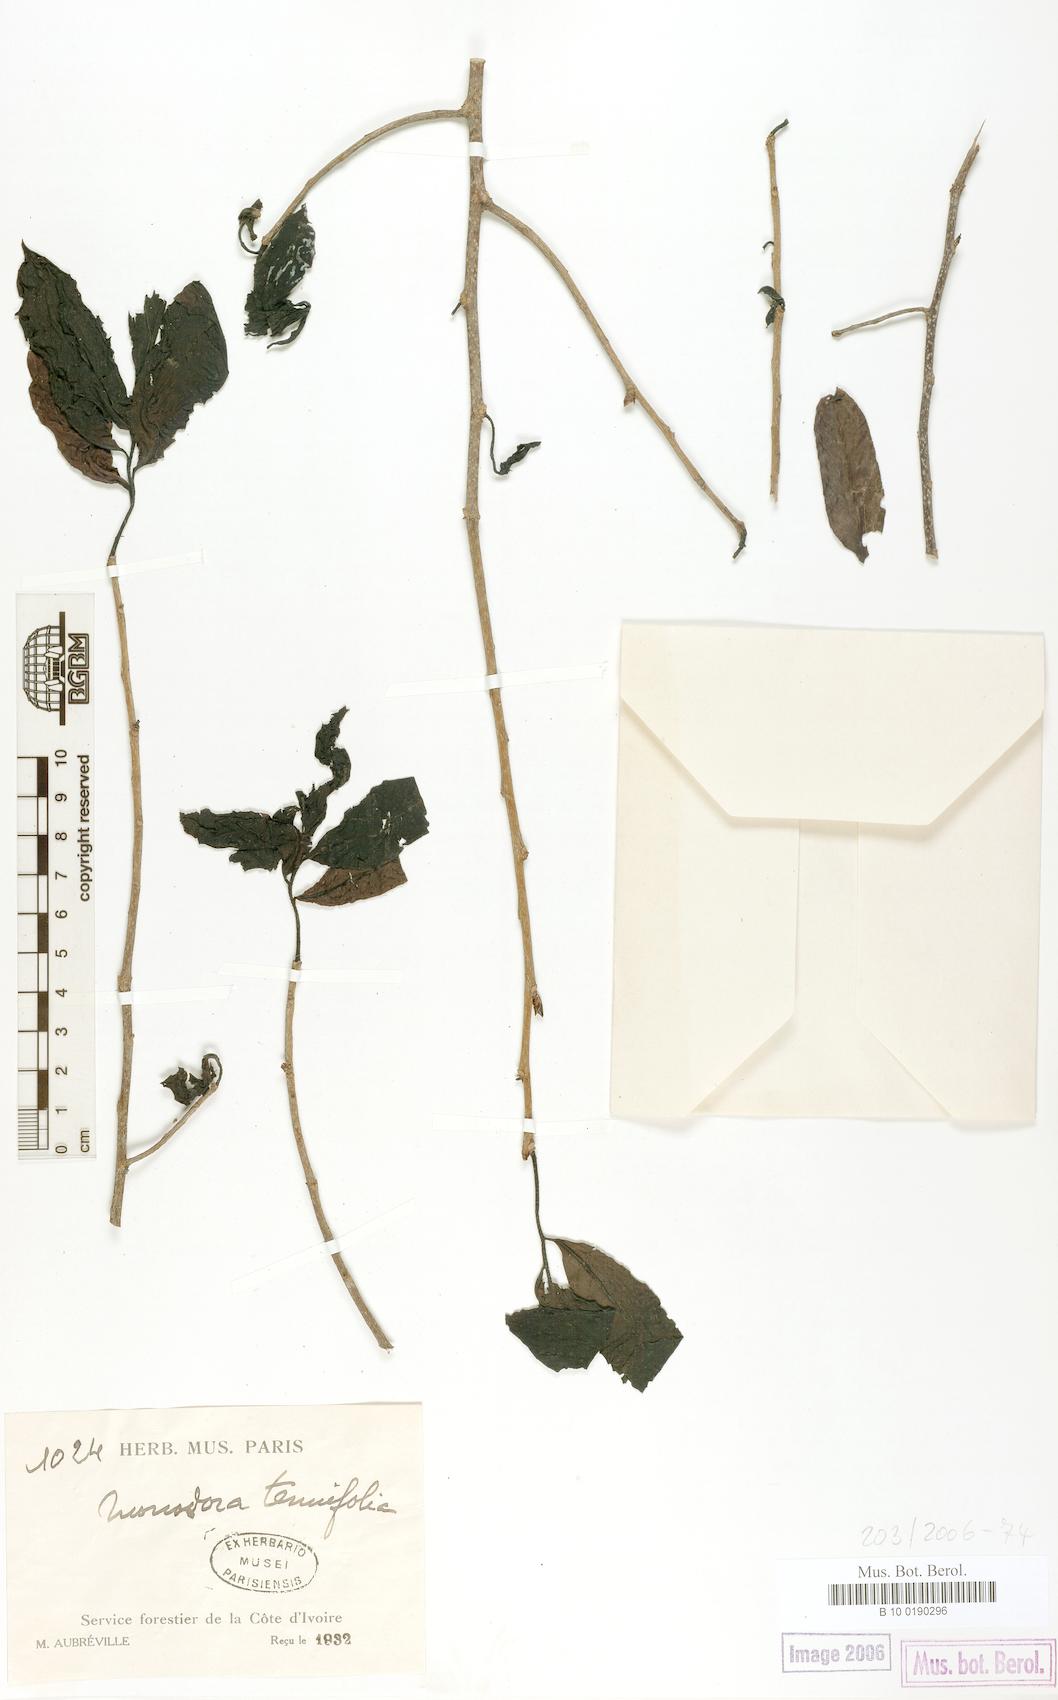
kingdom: Plantae
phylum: Tracheophyta
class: Magnoliopsida
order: Magnoliales
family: Annonaceae
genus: Monodora
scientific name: Monodora tenuifolia
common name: Orchidtree
